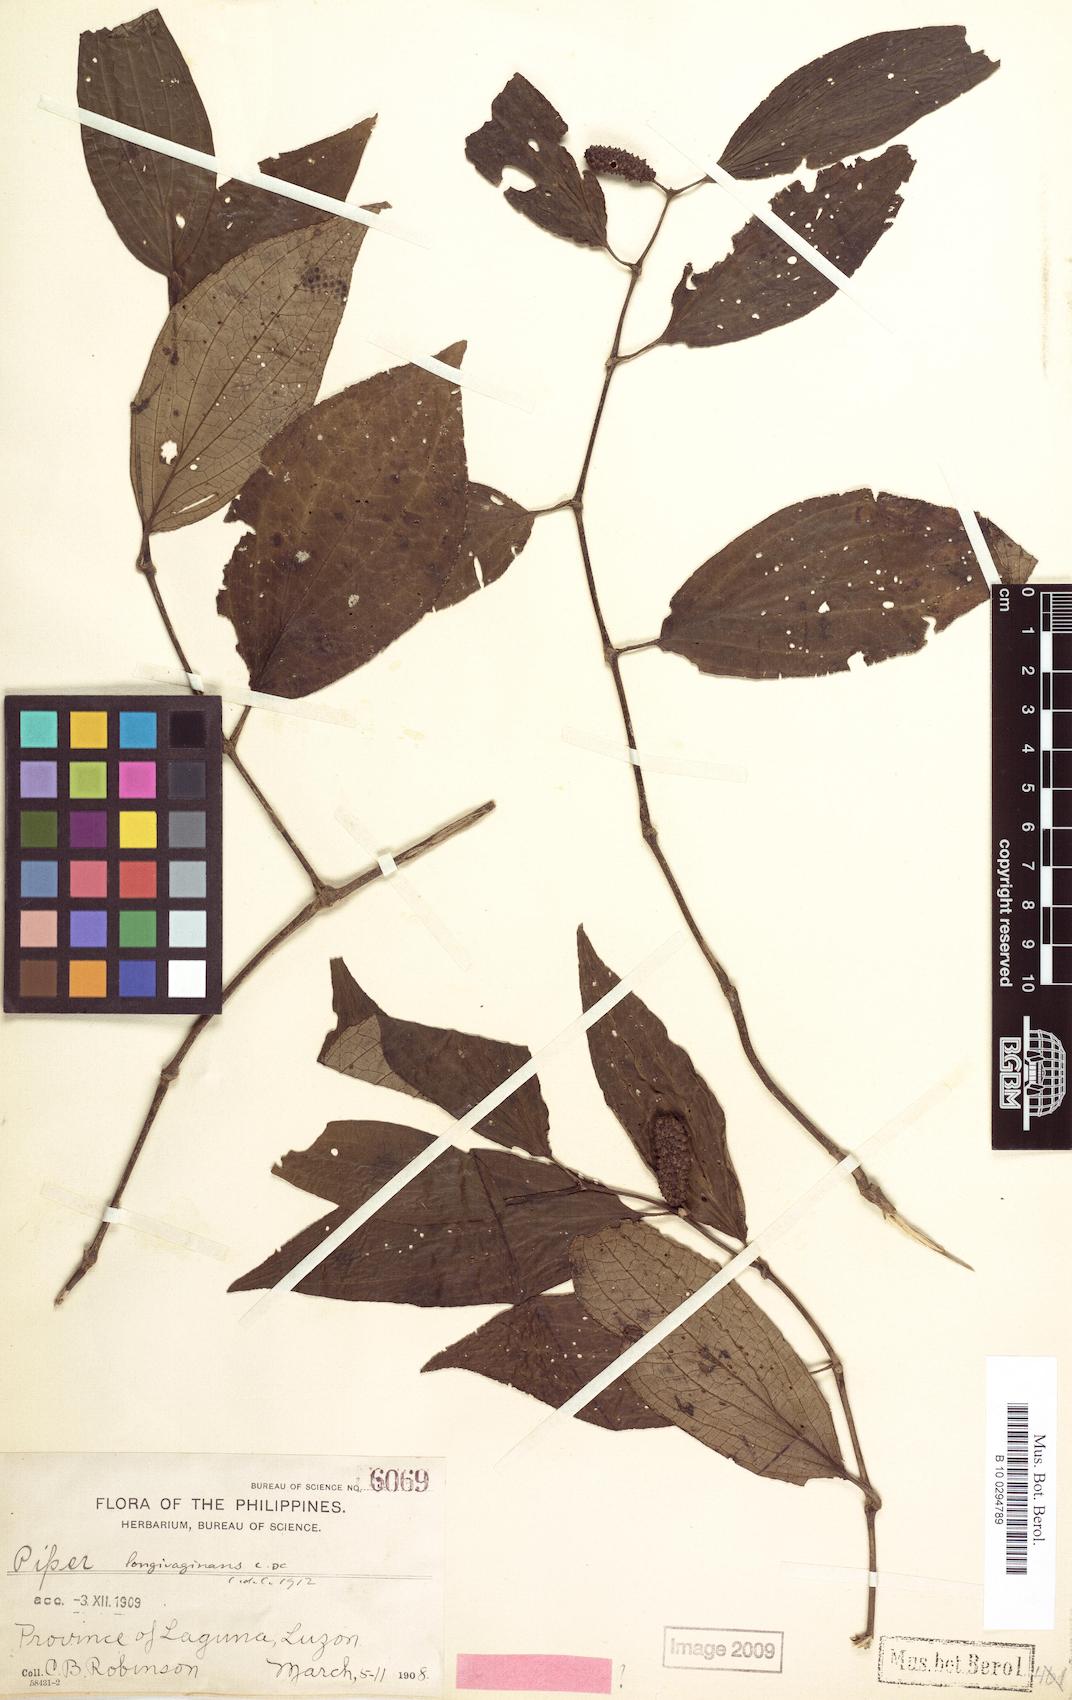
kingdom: Plantae
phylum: Tracheophyta
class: Magnoliopsida
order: Piperales
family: Piperaceae
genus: Piper
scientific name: Piper longivaginans
